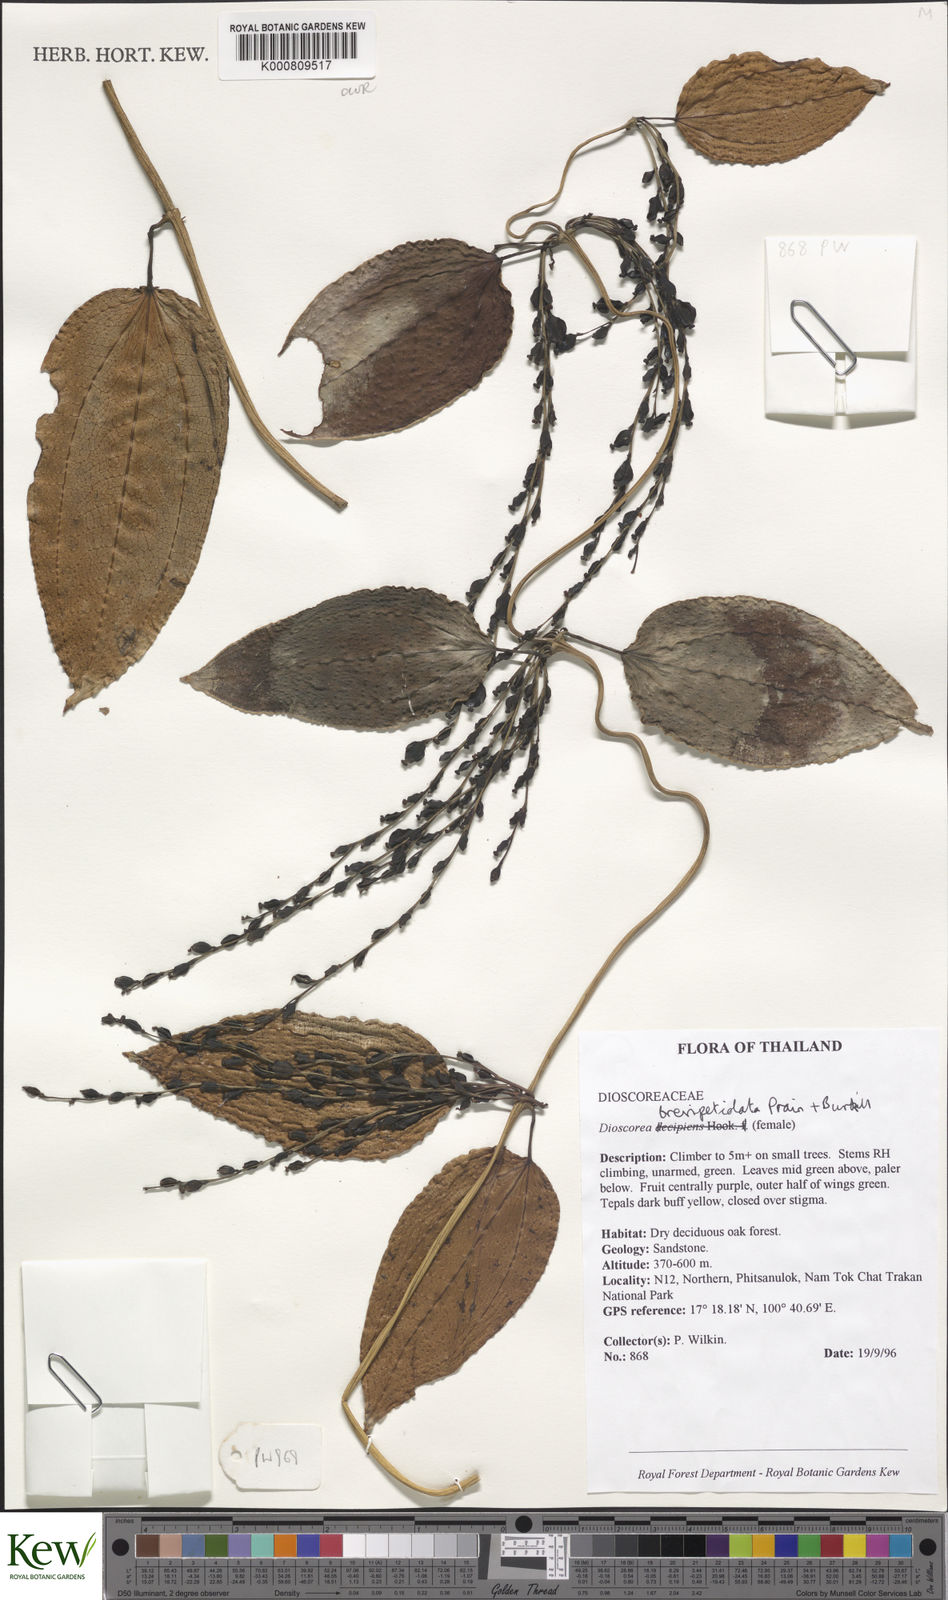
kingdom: Plantae
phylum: Tracheophyta
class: Liliopsida
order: Dioscoreales
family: Dioscoreaceae
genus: Dioscorea
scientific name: Dioscorea brevipetiolata
